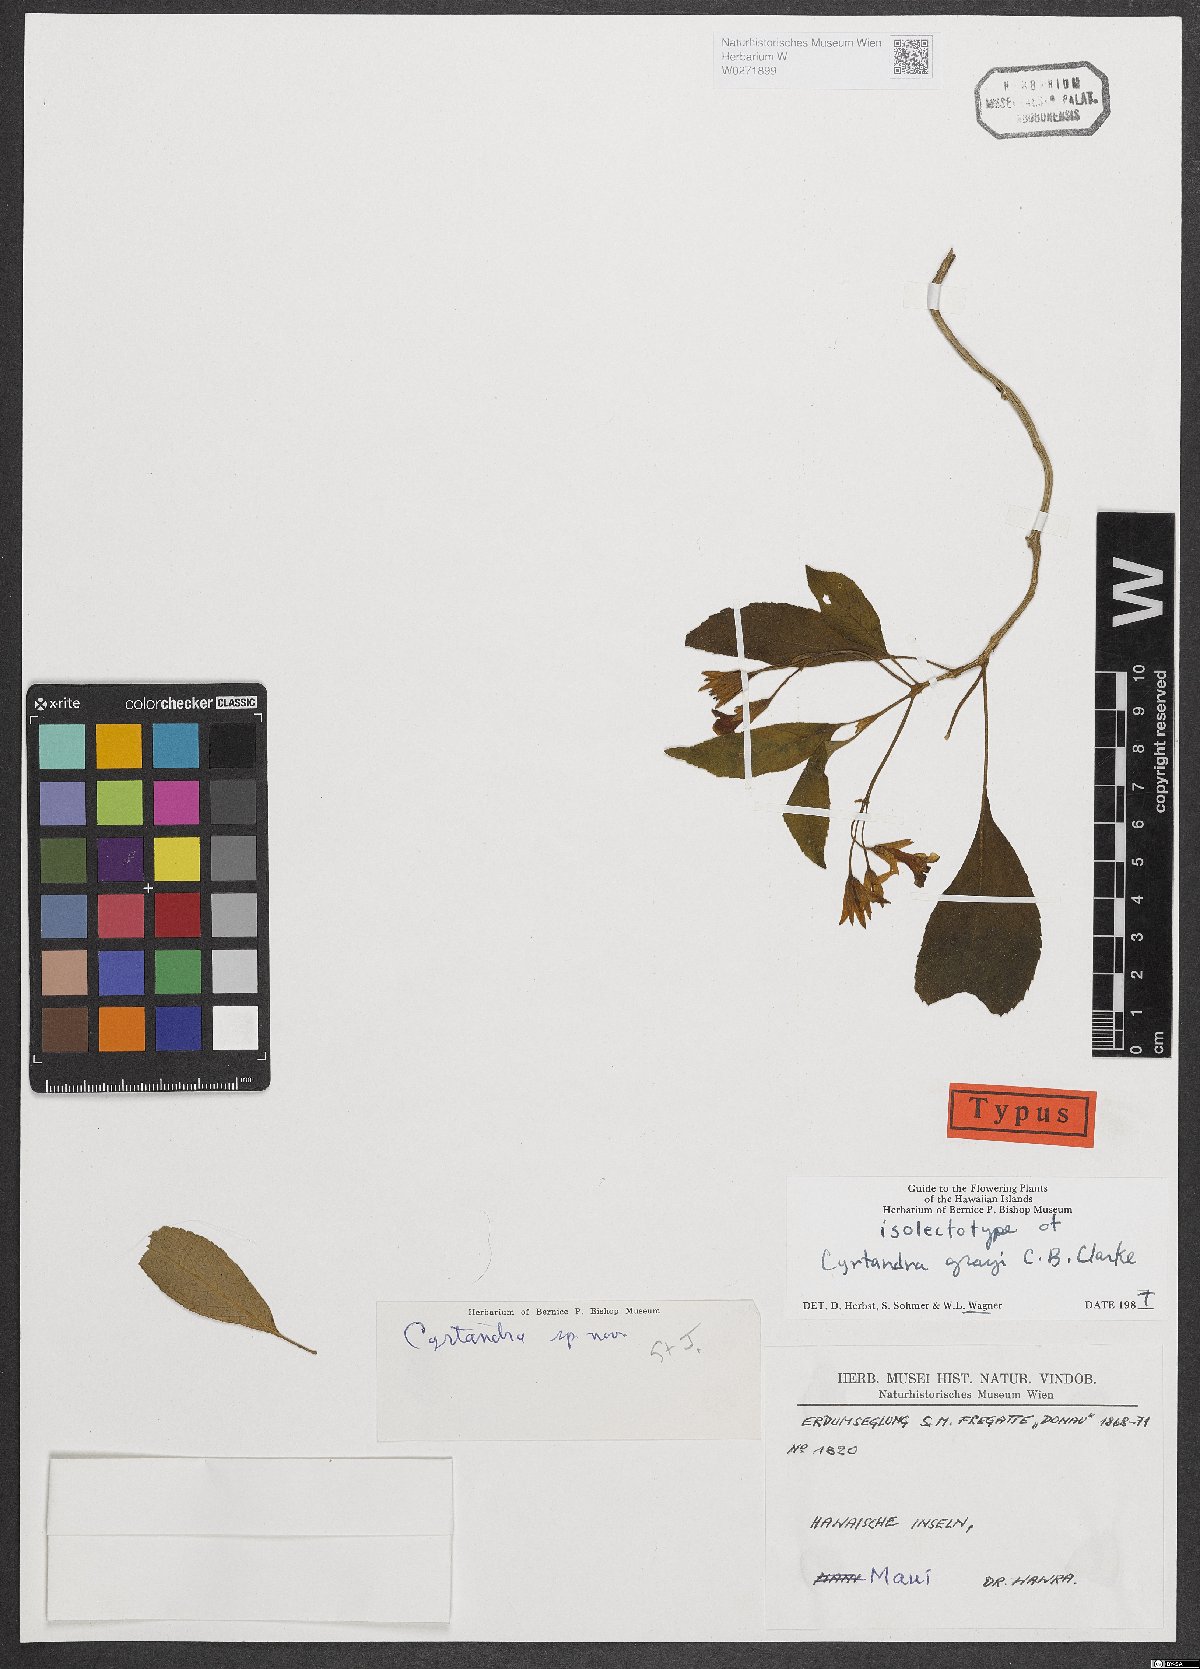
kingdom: Plantae
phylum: Tracheophyta
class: Magnoliopsida
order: Lamiales
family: Gesneriaceae
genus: Cyrtandra
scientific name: Cyrtandra grayi
